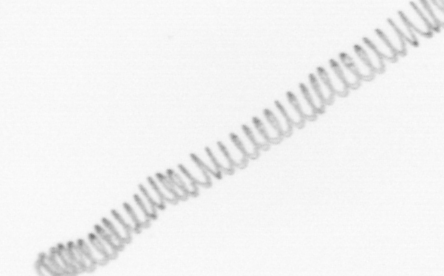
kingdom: Chromista
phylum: Ochrophyta
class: Bacillariophyceae
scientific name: Bacillariophyceae
